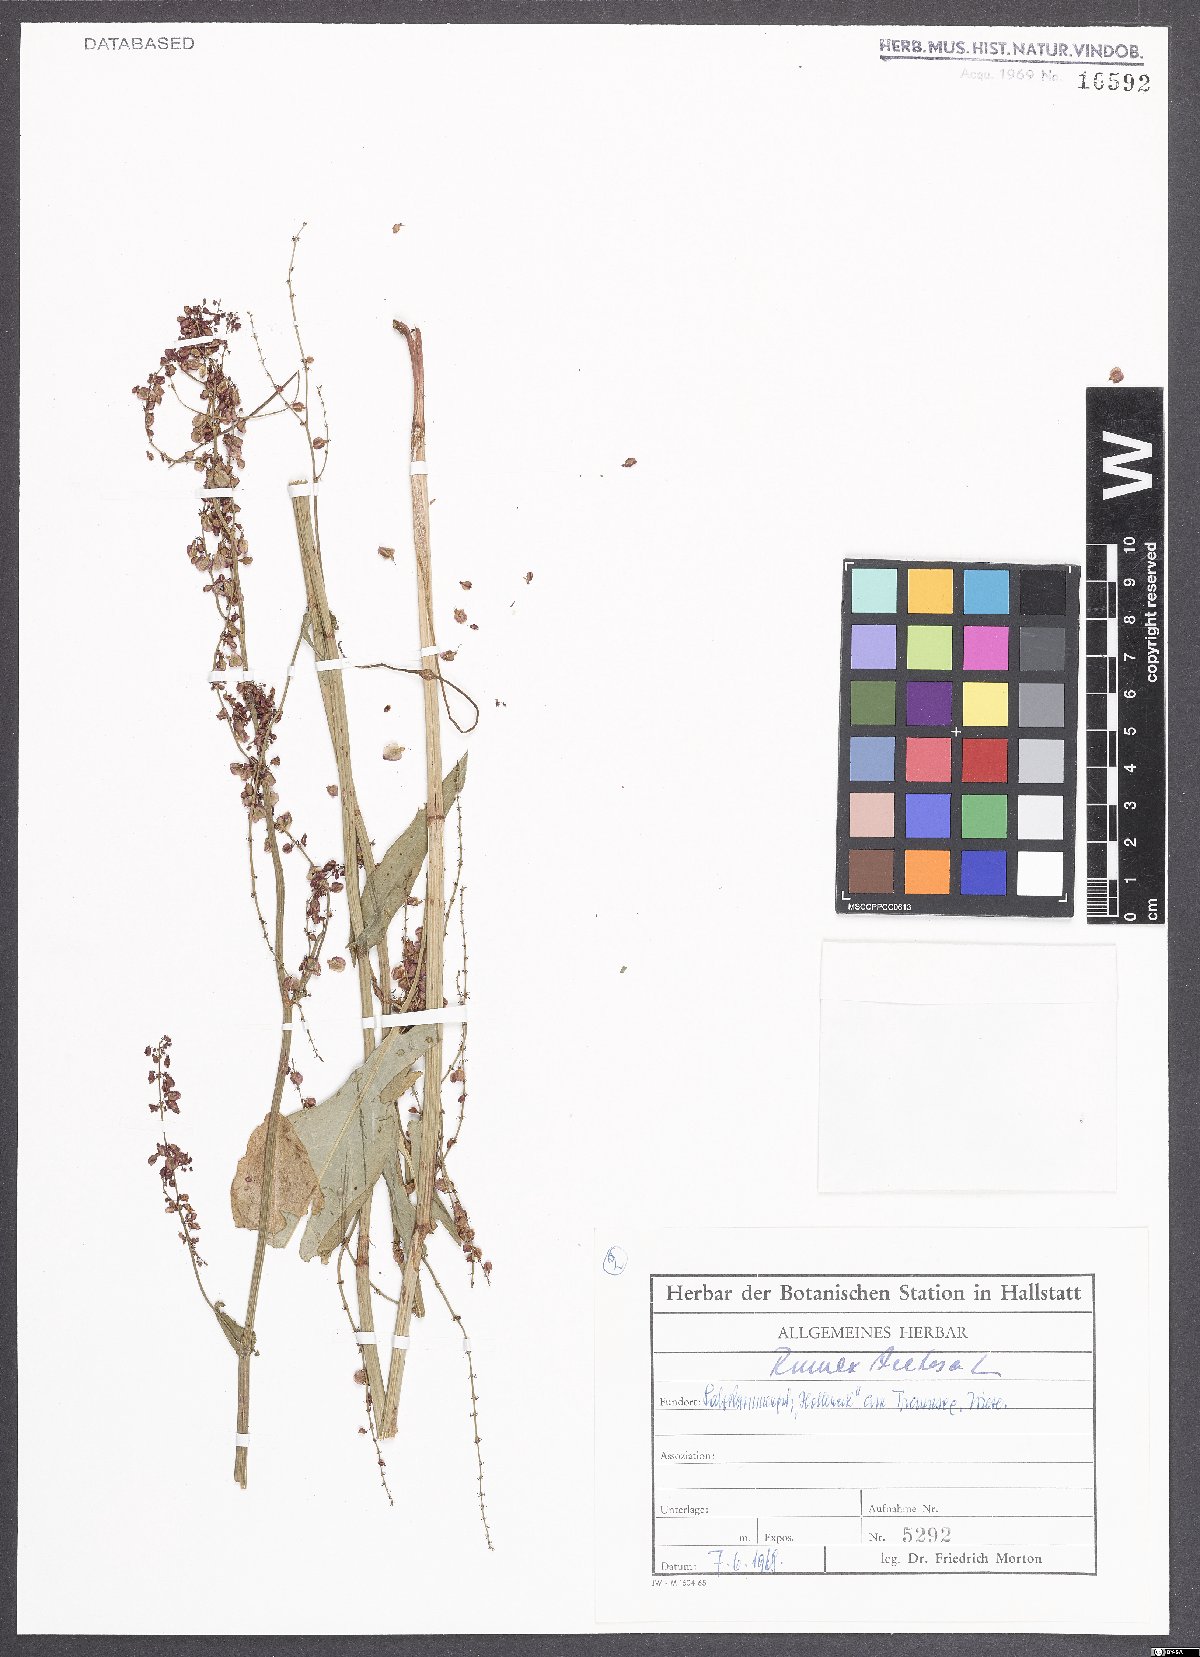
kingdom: Plantae
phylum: Tracheophyta
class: Magnoliopsida
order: Caryophyllales
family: Polygonaceae
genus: Rumex
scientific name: Rumex acetosa
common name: Garden sorrel
